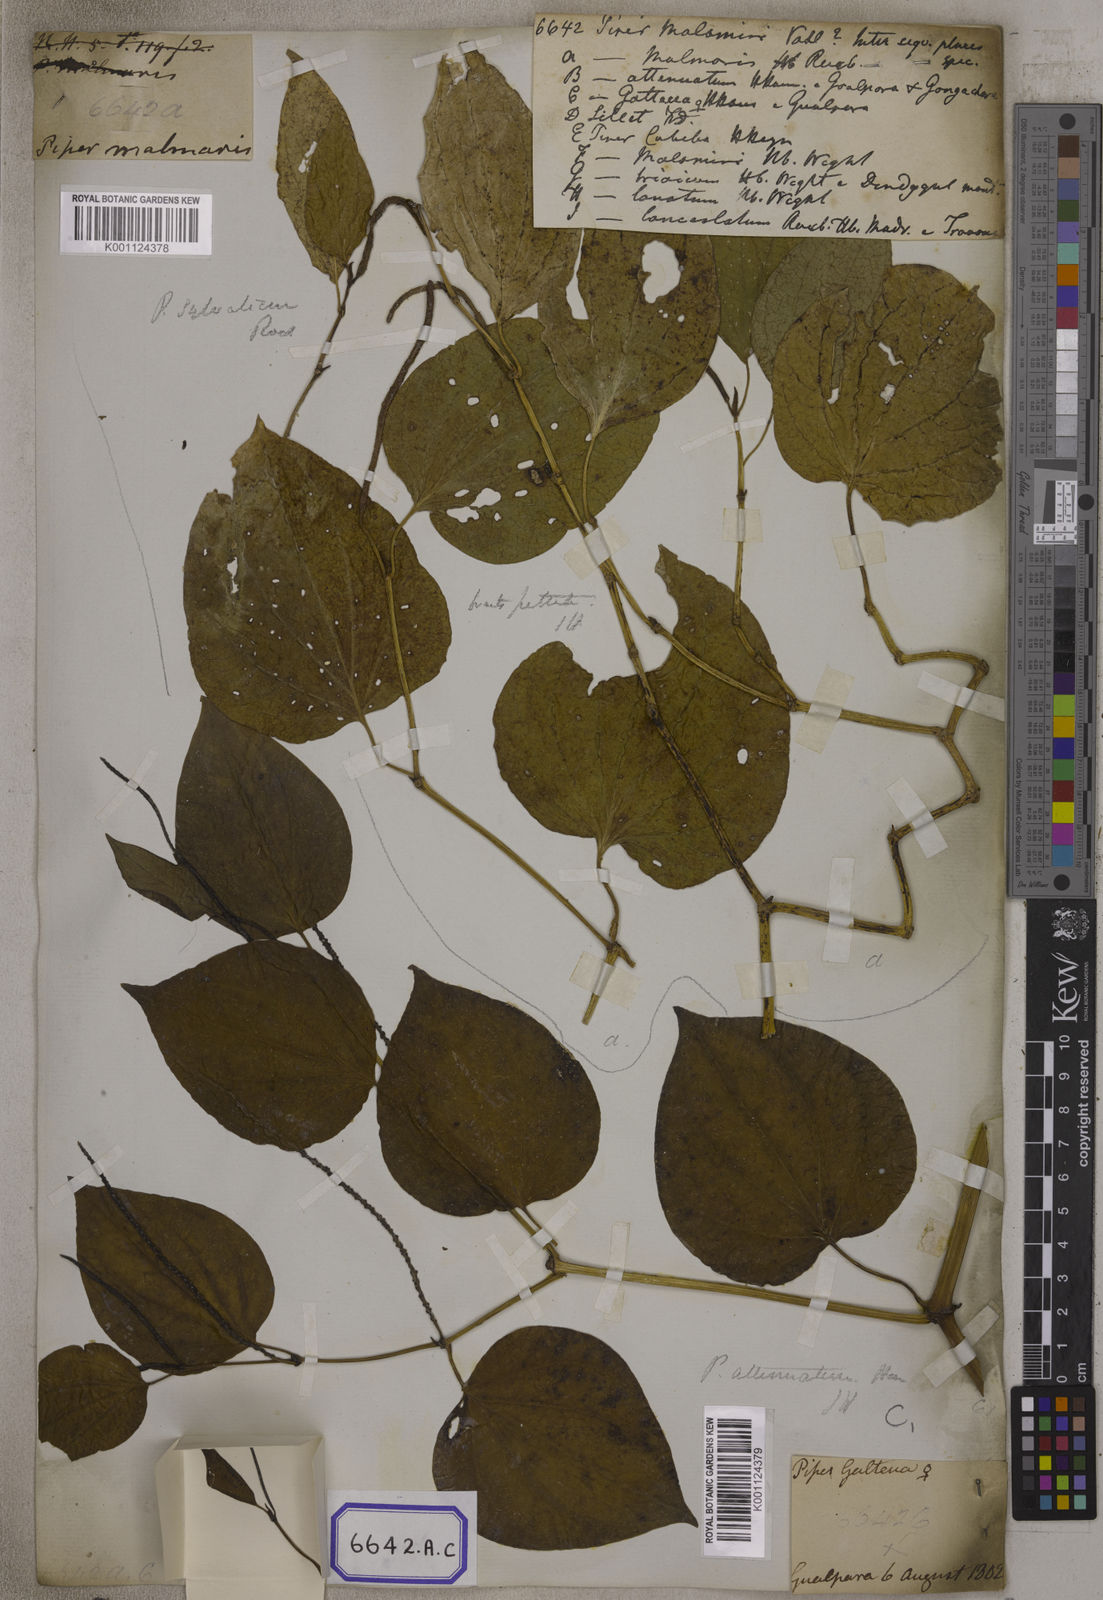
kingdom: Plantae
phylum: Tracheophyta
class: Magnoliopsida
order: Piperales
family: Piperaceae
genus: Piper
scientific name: Piper
